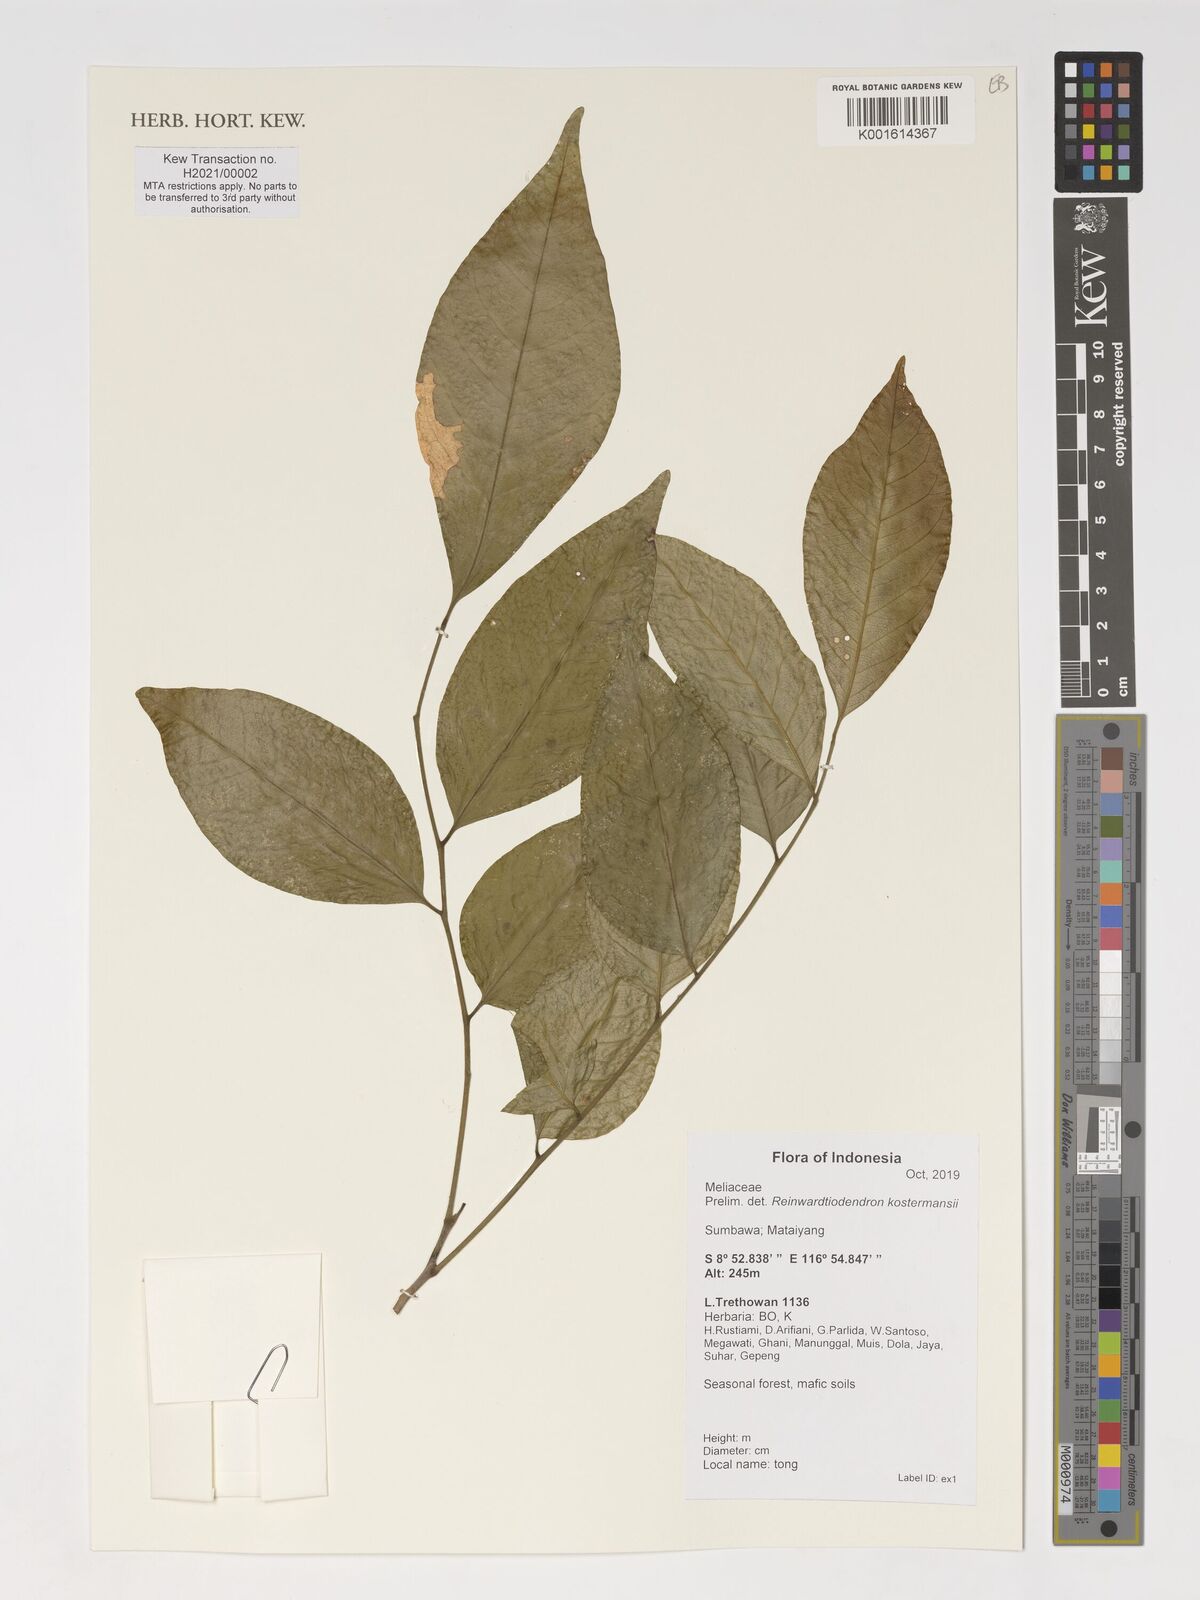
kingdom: Plantae
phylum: Tracheophyta
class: Magnoliopsida
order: Sapindales
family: Meliaceae
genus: Reinwardtiodendron
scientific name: Reinwardtiodendron kostermansii
